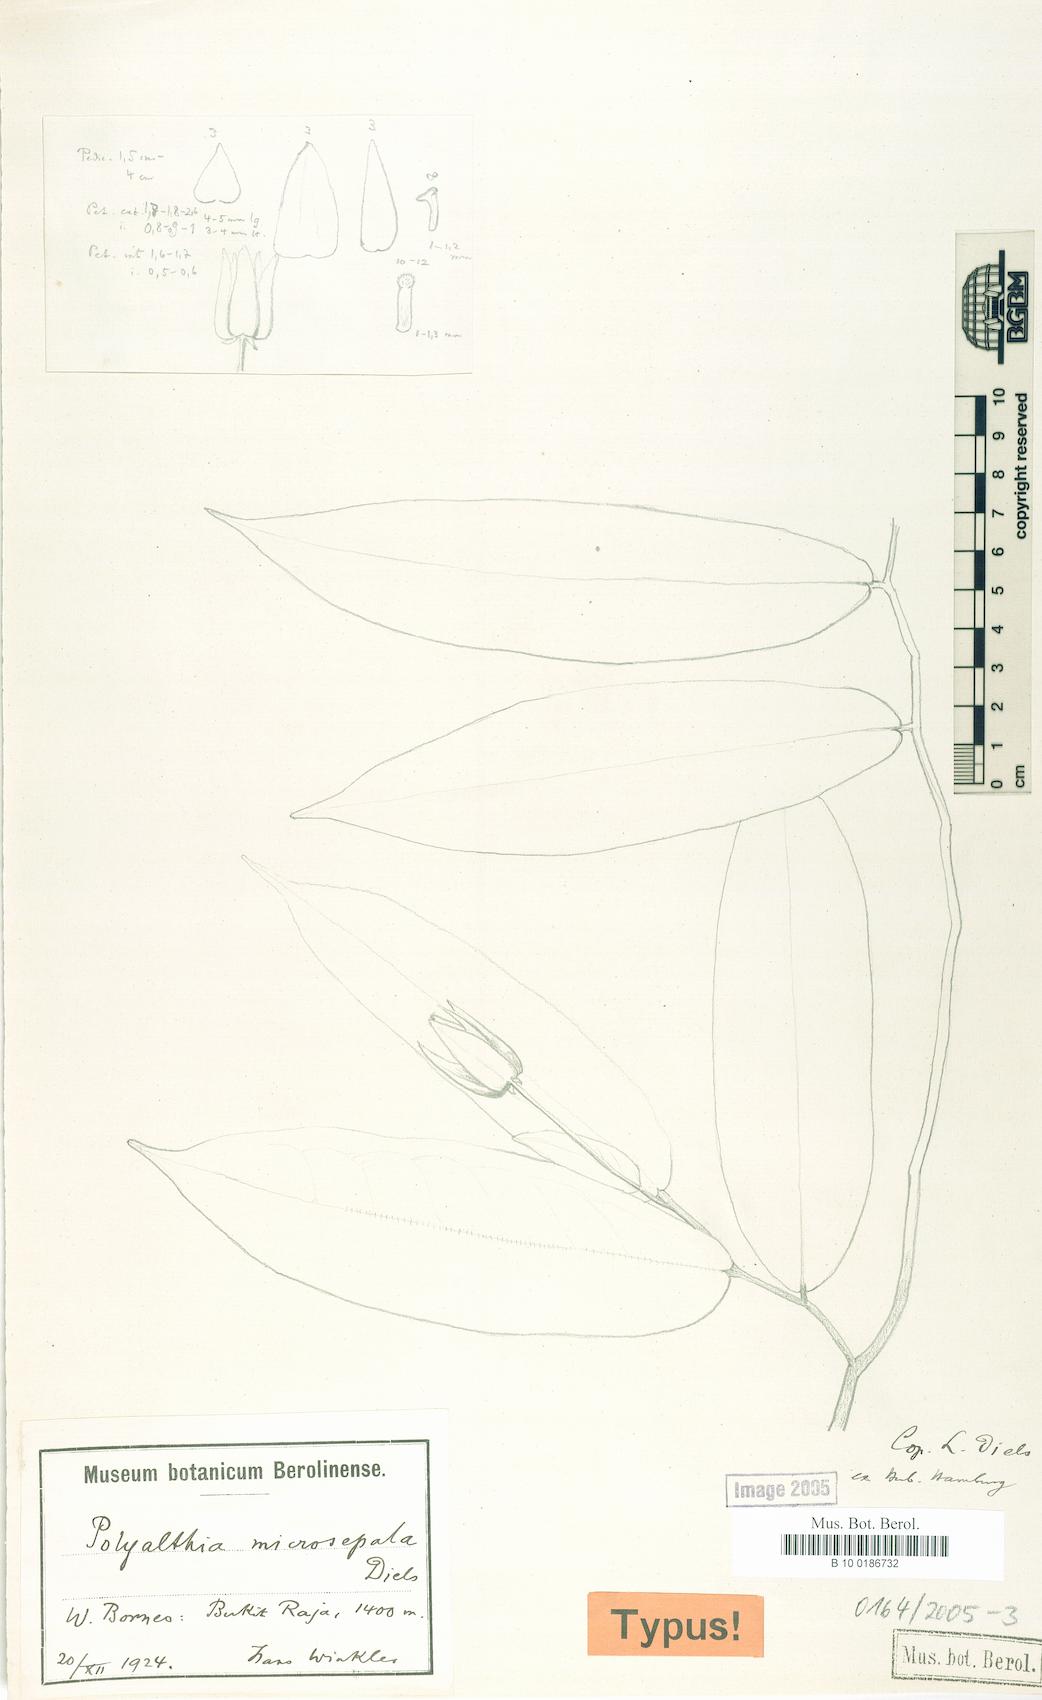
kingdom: Plantae
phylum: Tracheophyta
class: Magnoliopsida
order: Magnoliales
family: Annonaceae
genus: Polyalthia
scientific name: Polyalthia microsepala
